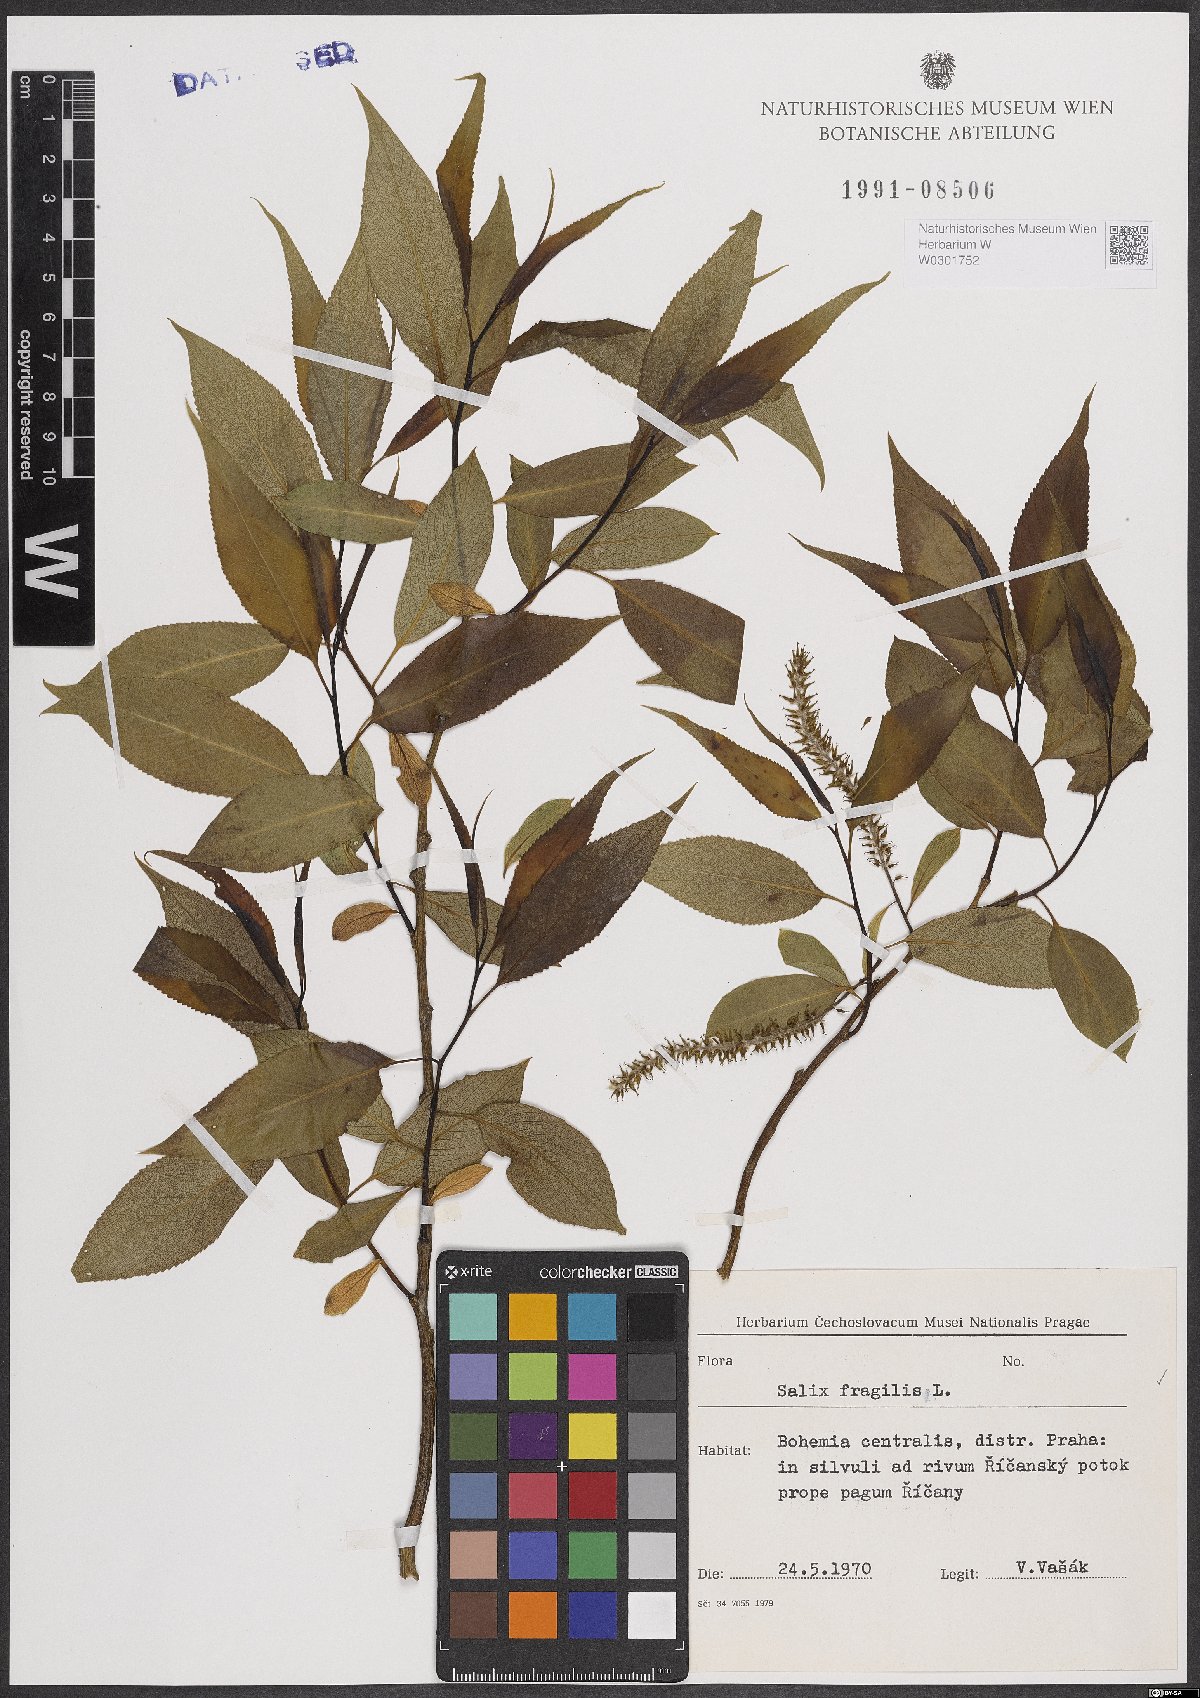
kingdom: Plantae
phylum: Tracheophyta
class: Magnoliopsida
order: Malpighiales
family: Salicaceae
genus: Salix
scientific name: Salix fragilis
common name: Crack willow
